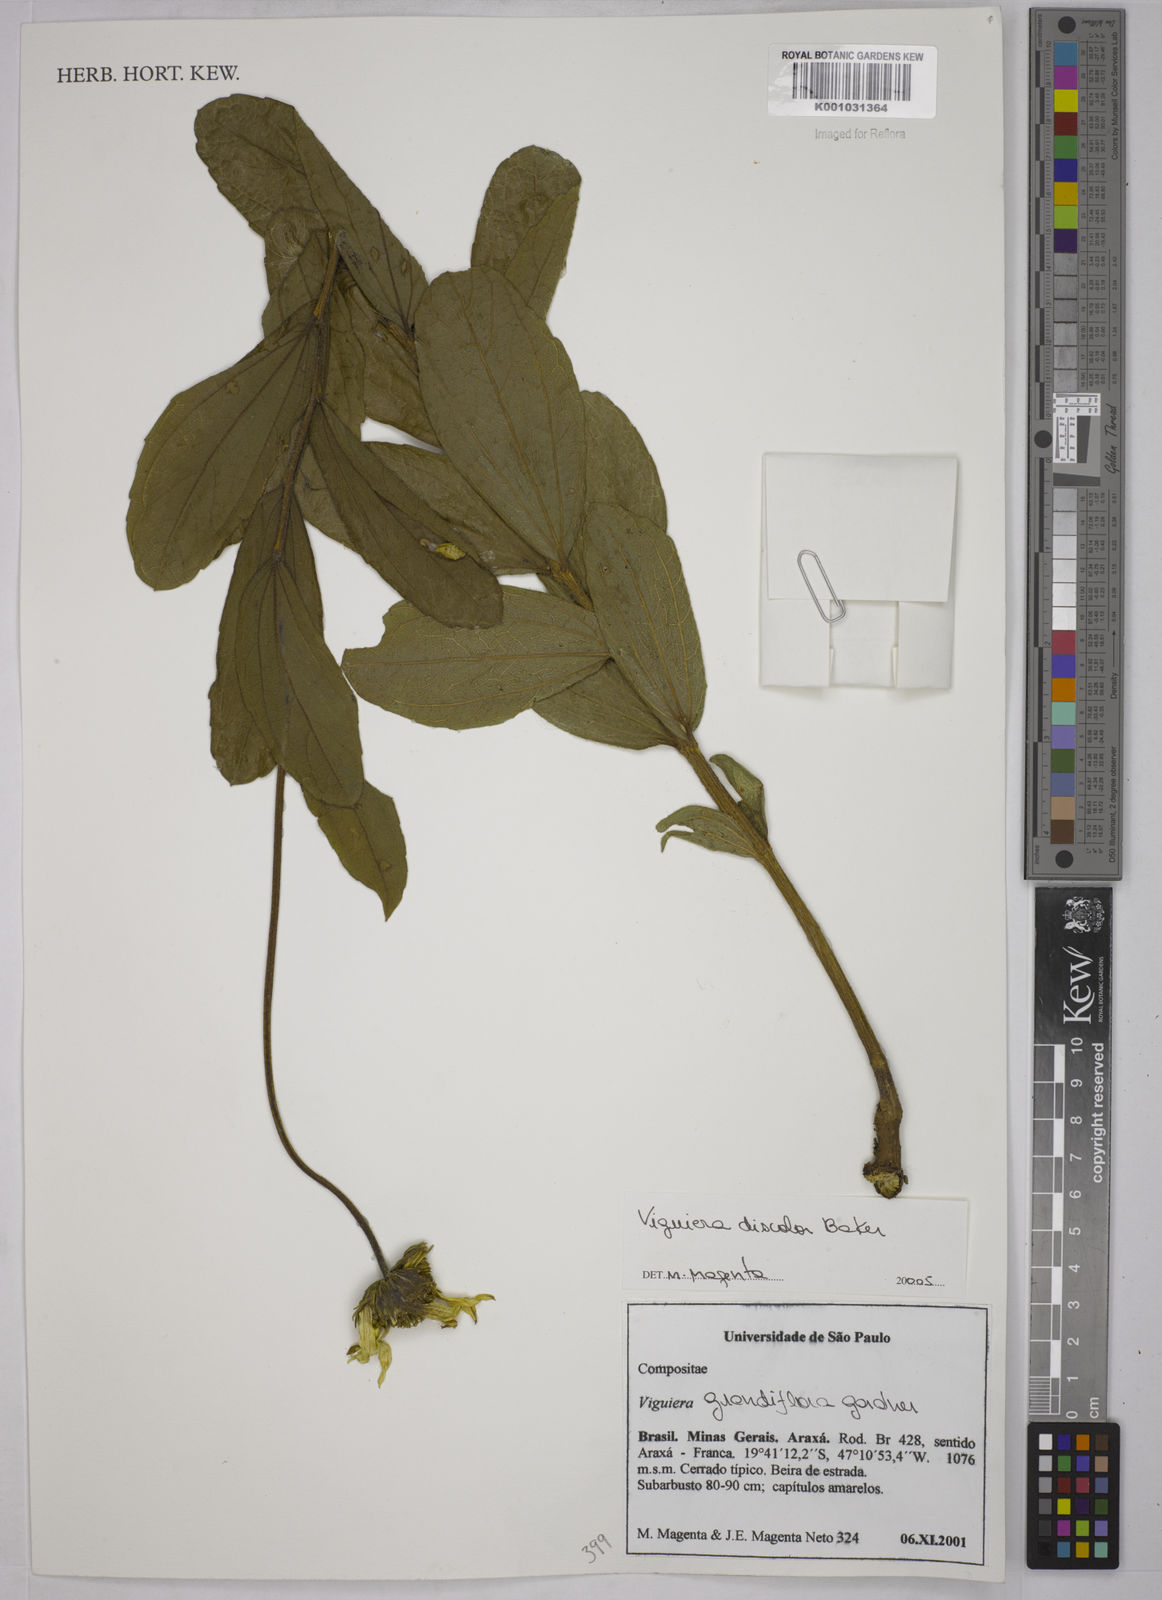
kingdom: Plantae
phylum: Tracheophyta
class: Magnoliopsida
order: Asterales
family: Asteraceae
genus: Aldama
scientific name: Aldama discolor
